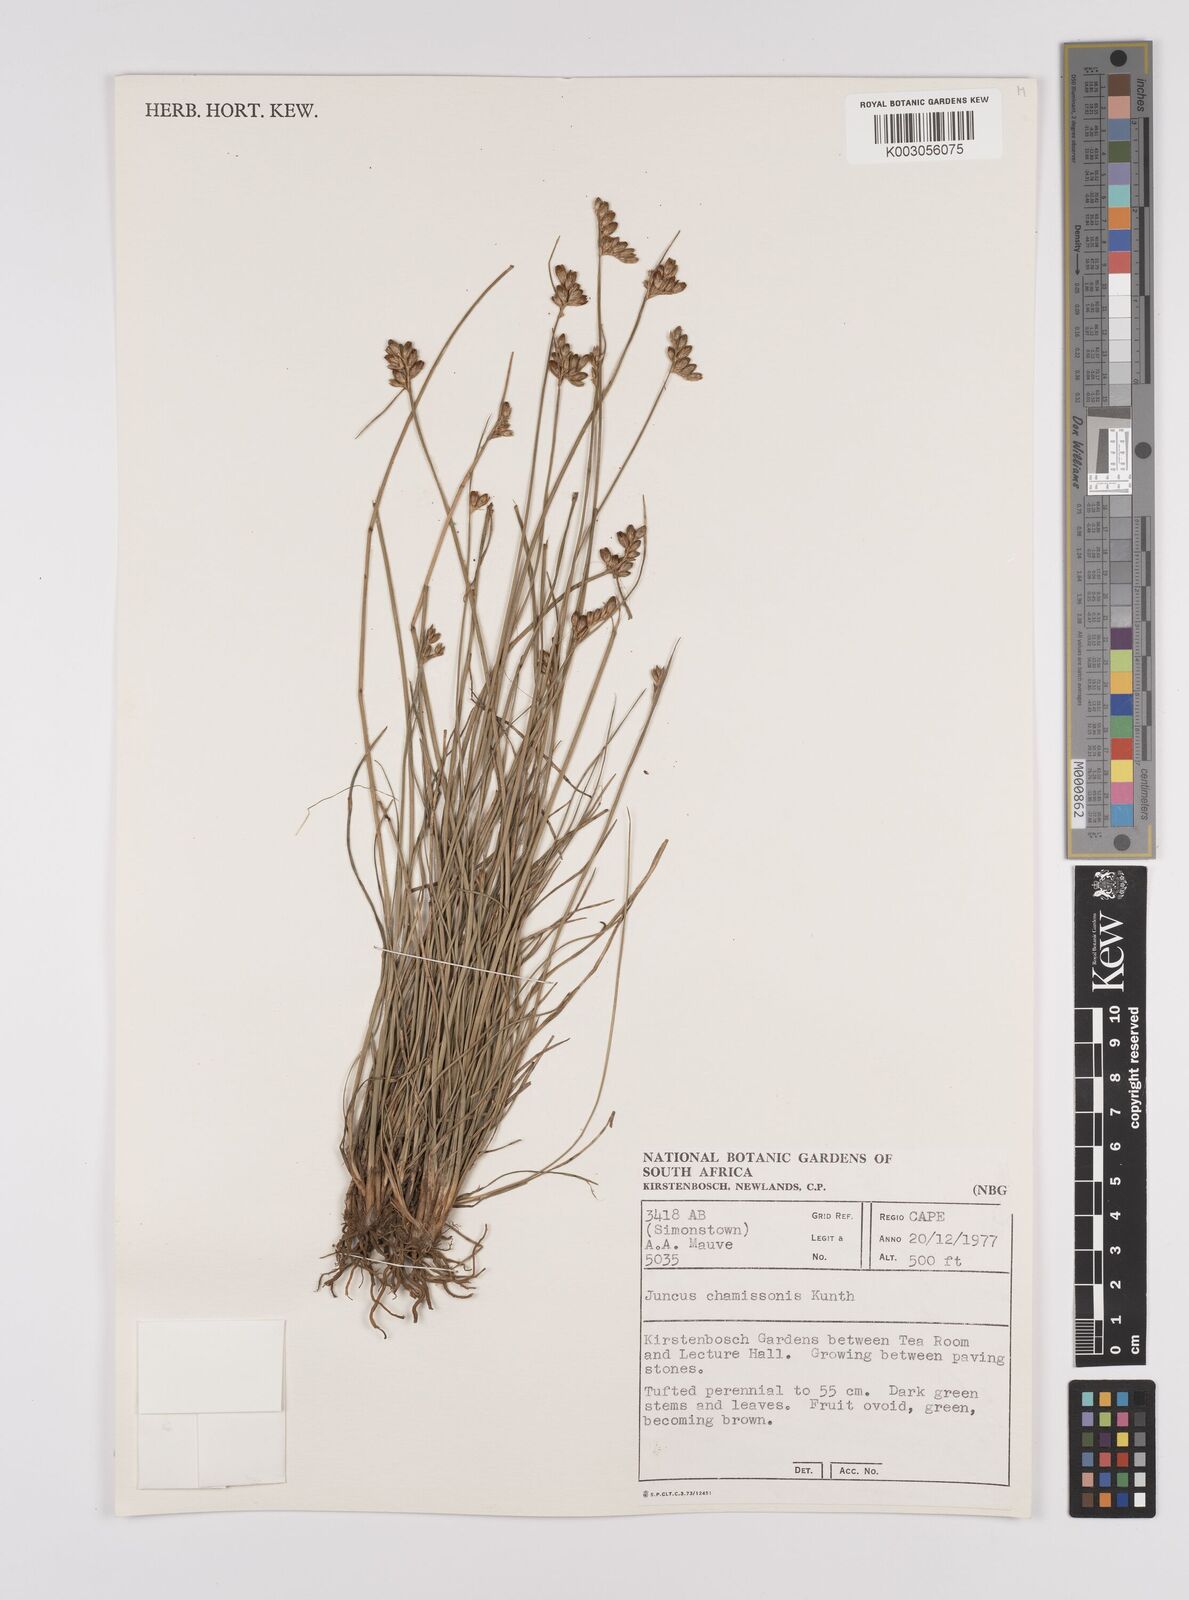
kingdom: Plantae
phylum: Tracheophyta
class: Liliopsida
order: Poales
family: Juncaceae
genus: Juncus
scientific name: Juncus imbricatus
